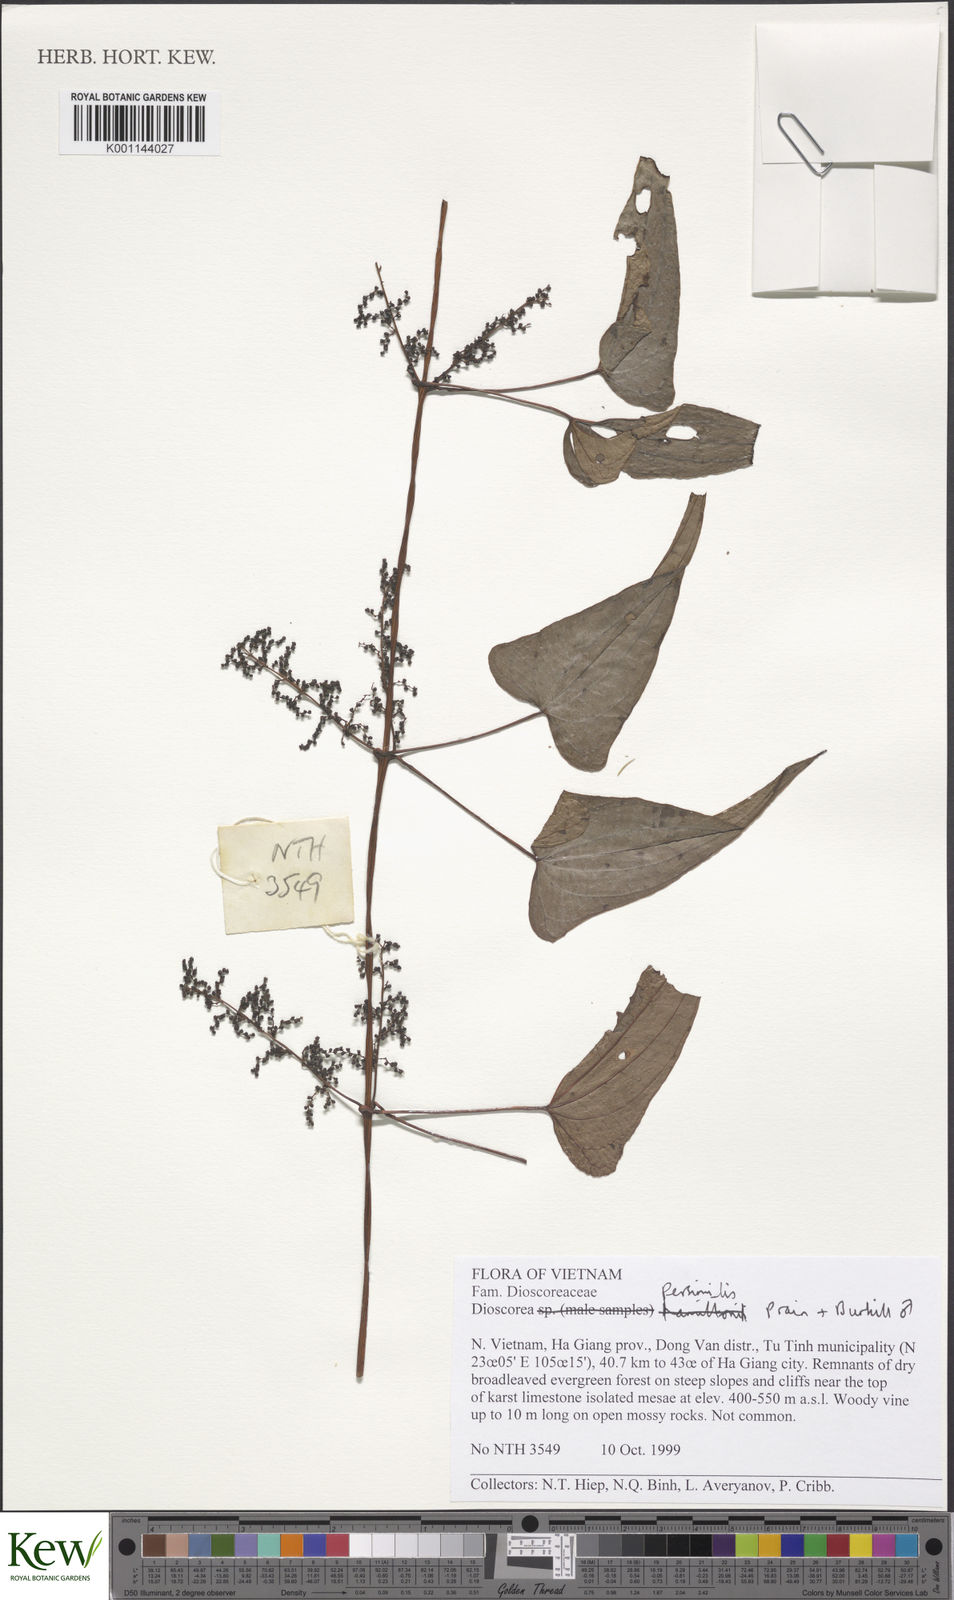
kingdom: Plantae
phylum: Tracheophyta
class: Liliopsida
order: Dioscoreales
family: Dioscoreaceae
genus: Dioscorea
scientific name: Dioscorea hamiltonii
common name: Mountain yam
